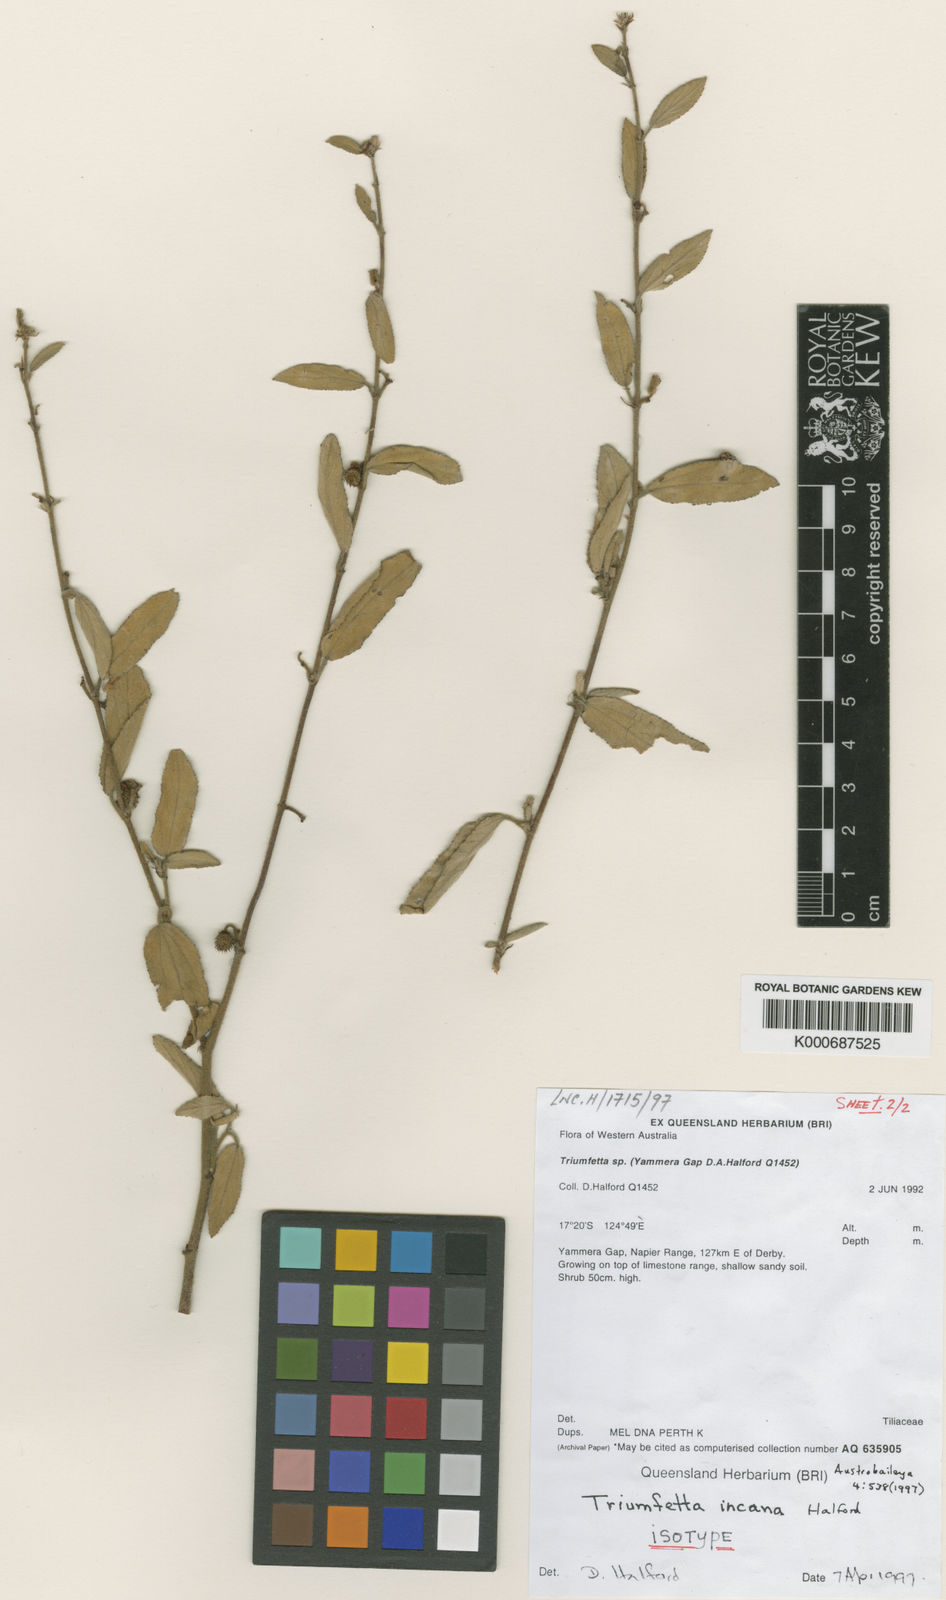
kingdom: Plantae
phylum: Tracheophyta
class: Magnoliopsida
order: Malvales
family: Malvaceae
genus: Triumfetta
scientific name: Triumfetta incana
